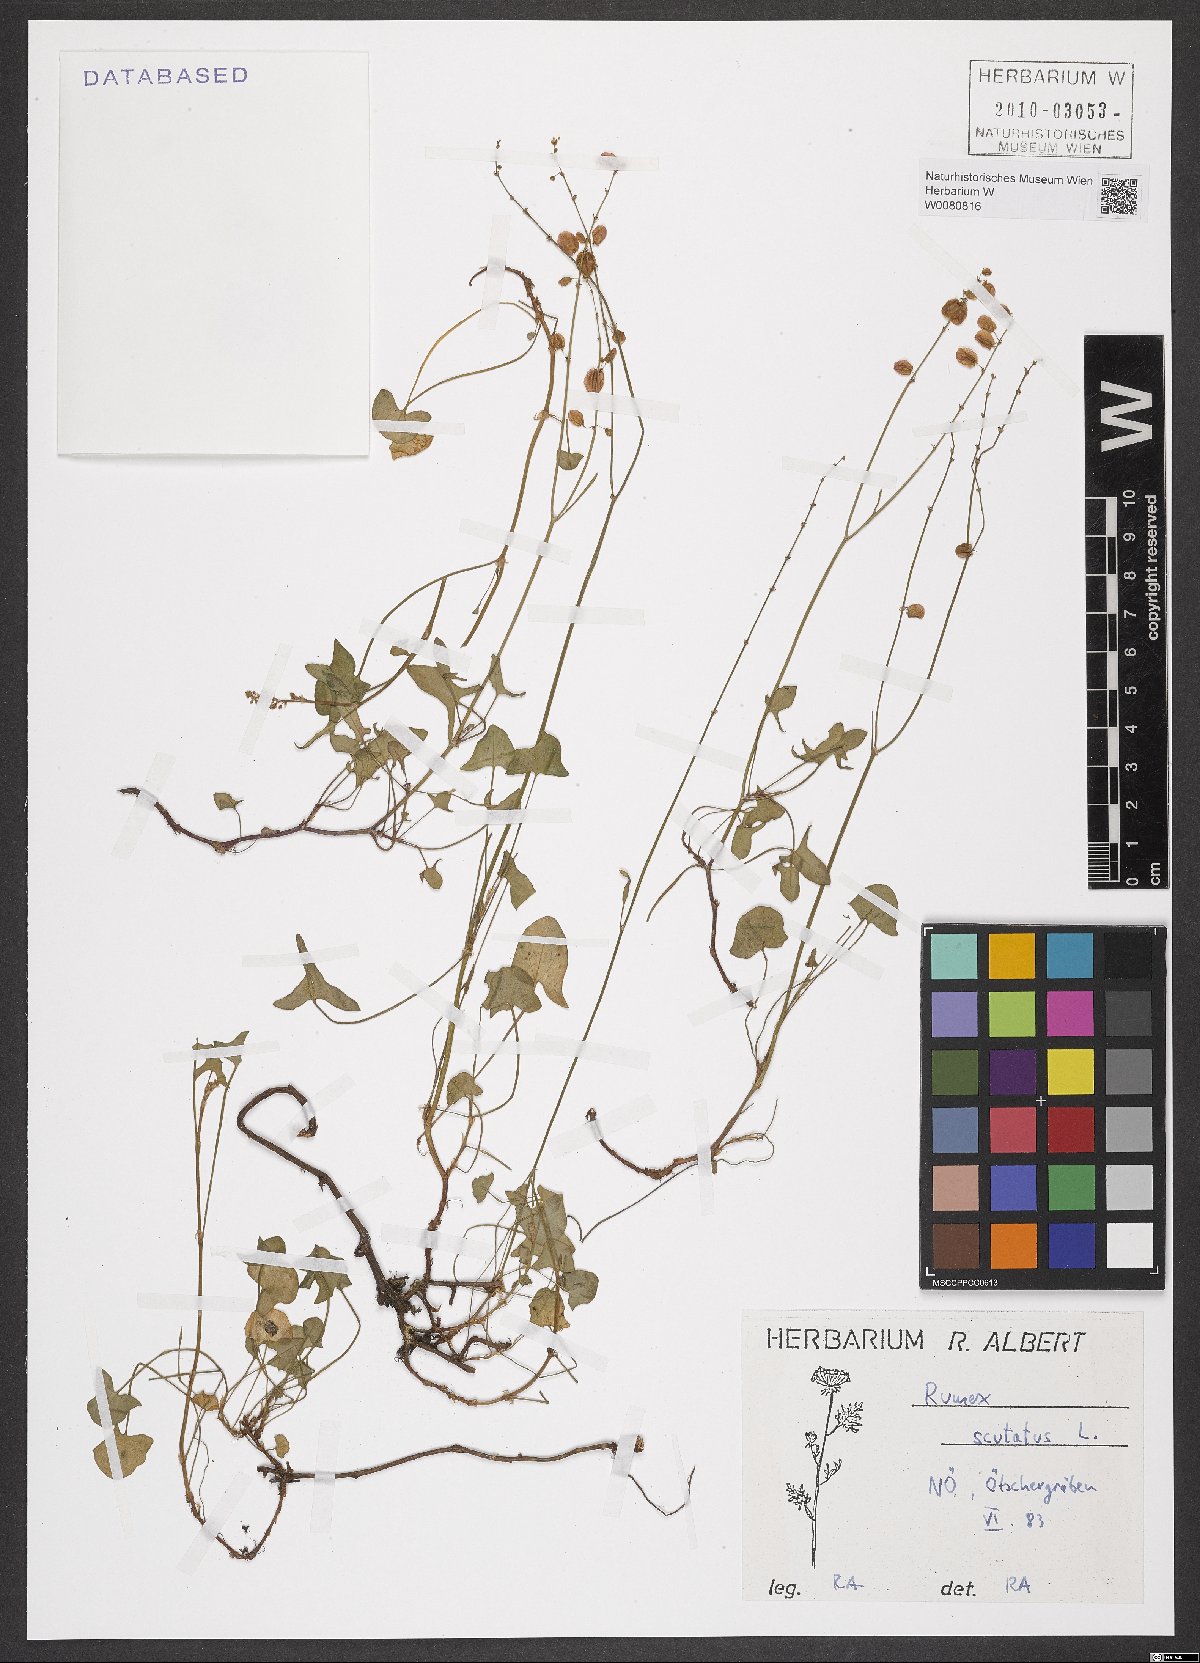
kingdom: Plantae
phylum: Tracheophyta
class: Magnoliopsida
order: Caryophyllales
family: Polygonaceae
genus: Rumex
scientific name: Rumex scutatus
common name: French sorrel
